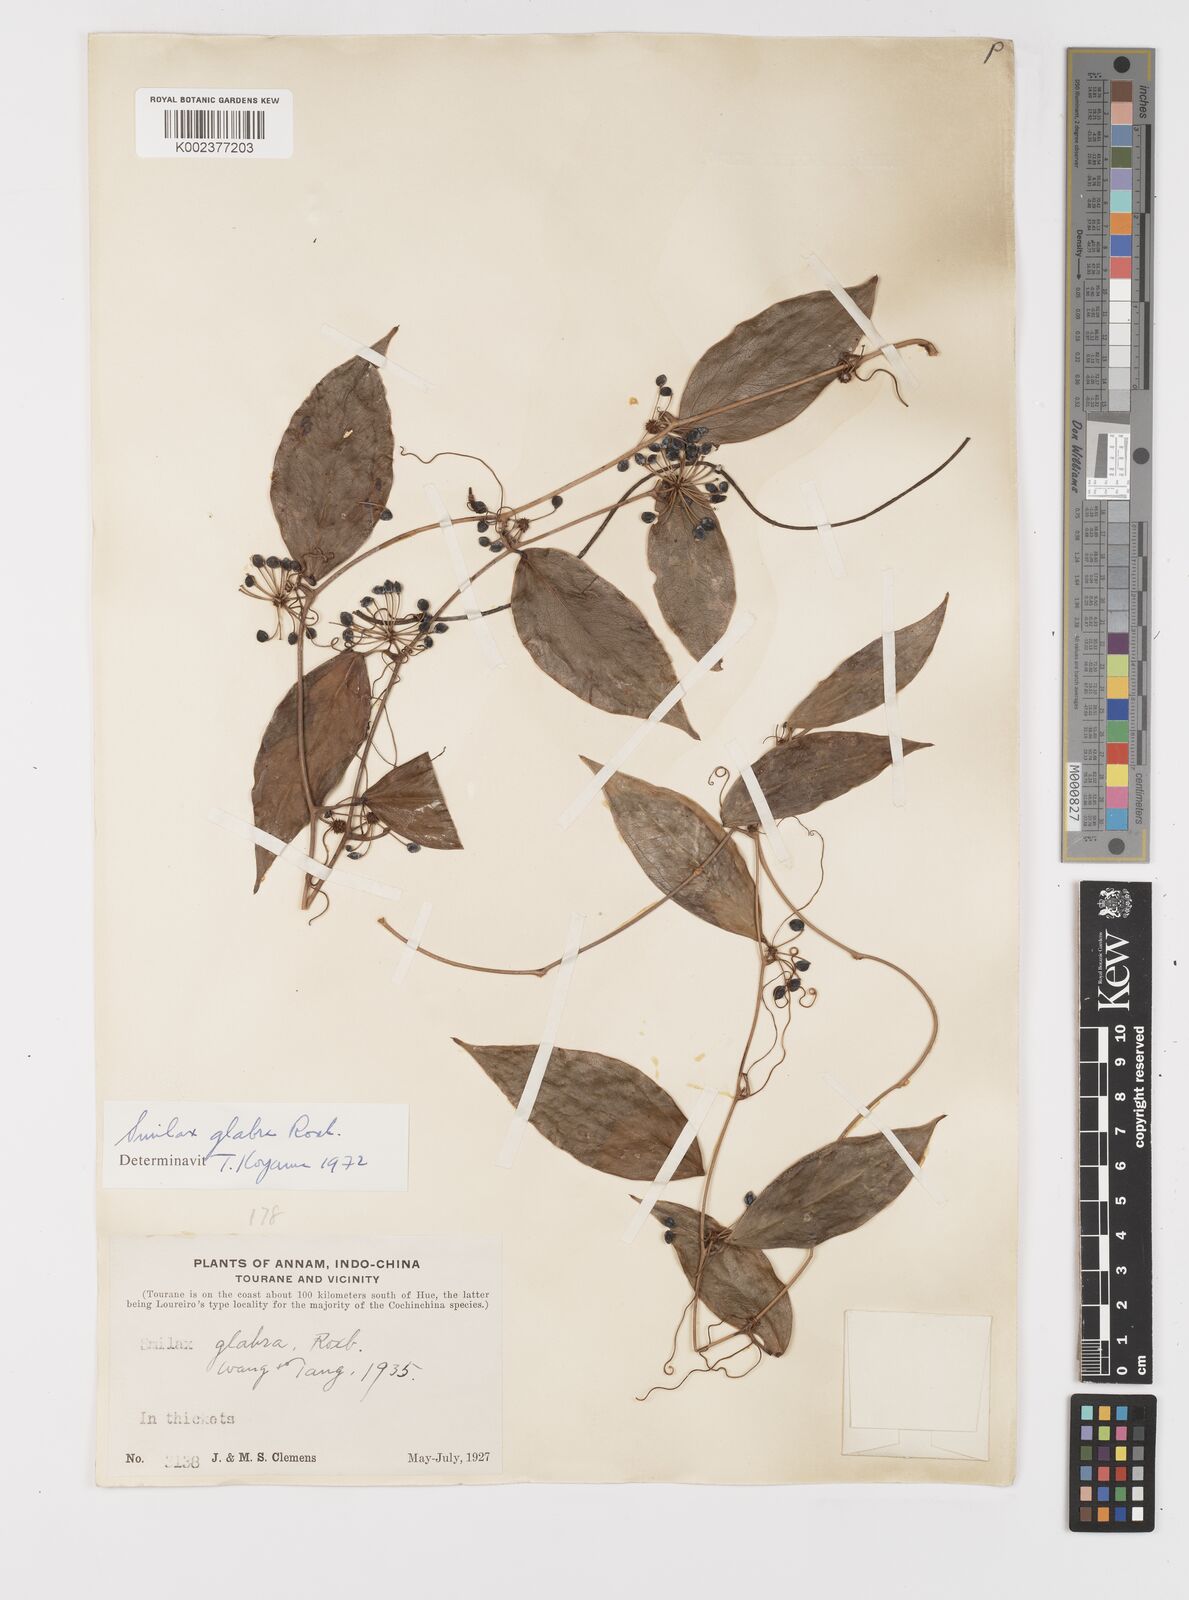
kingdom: Plantae
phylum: Tracheophyta
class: Liliopsida
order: Liliales
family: Smilacaceae
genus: Smilax
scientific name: Smilax glabra
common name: Chinese smilax
